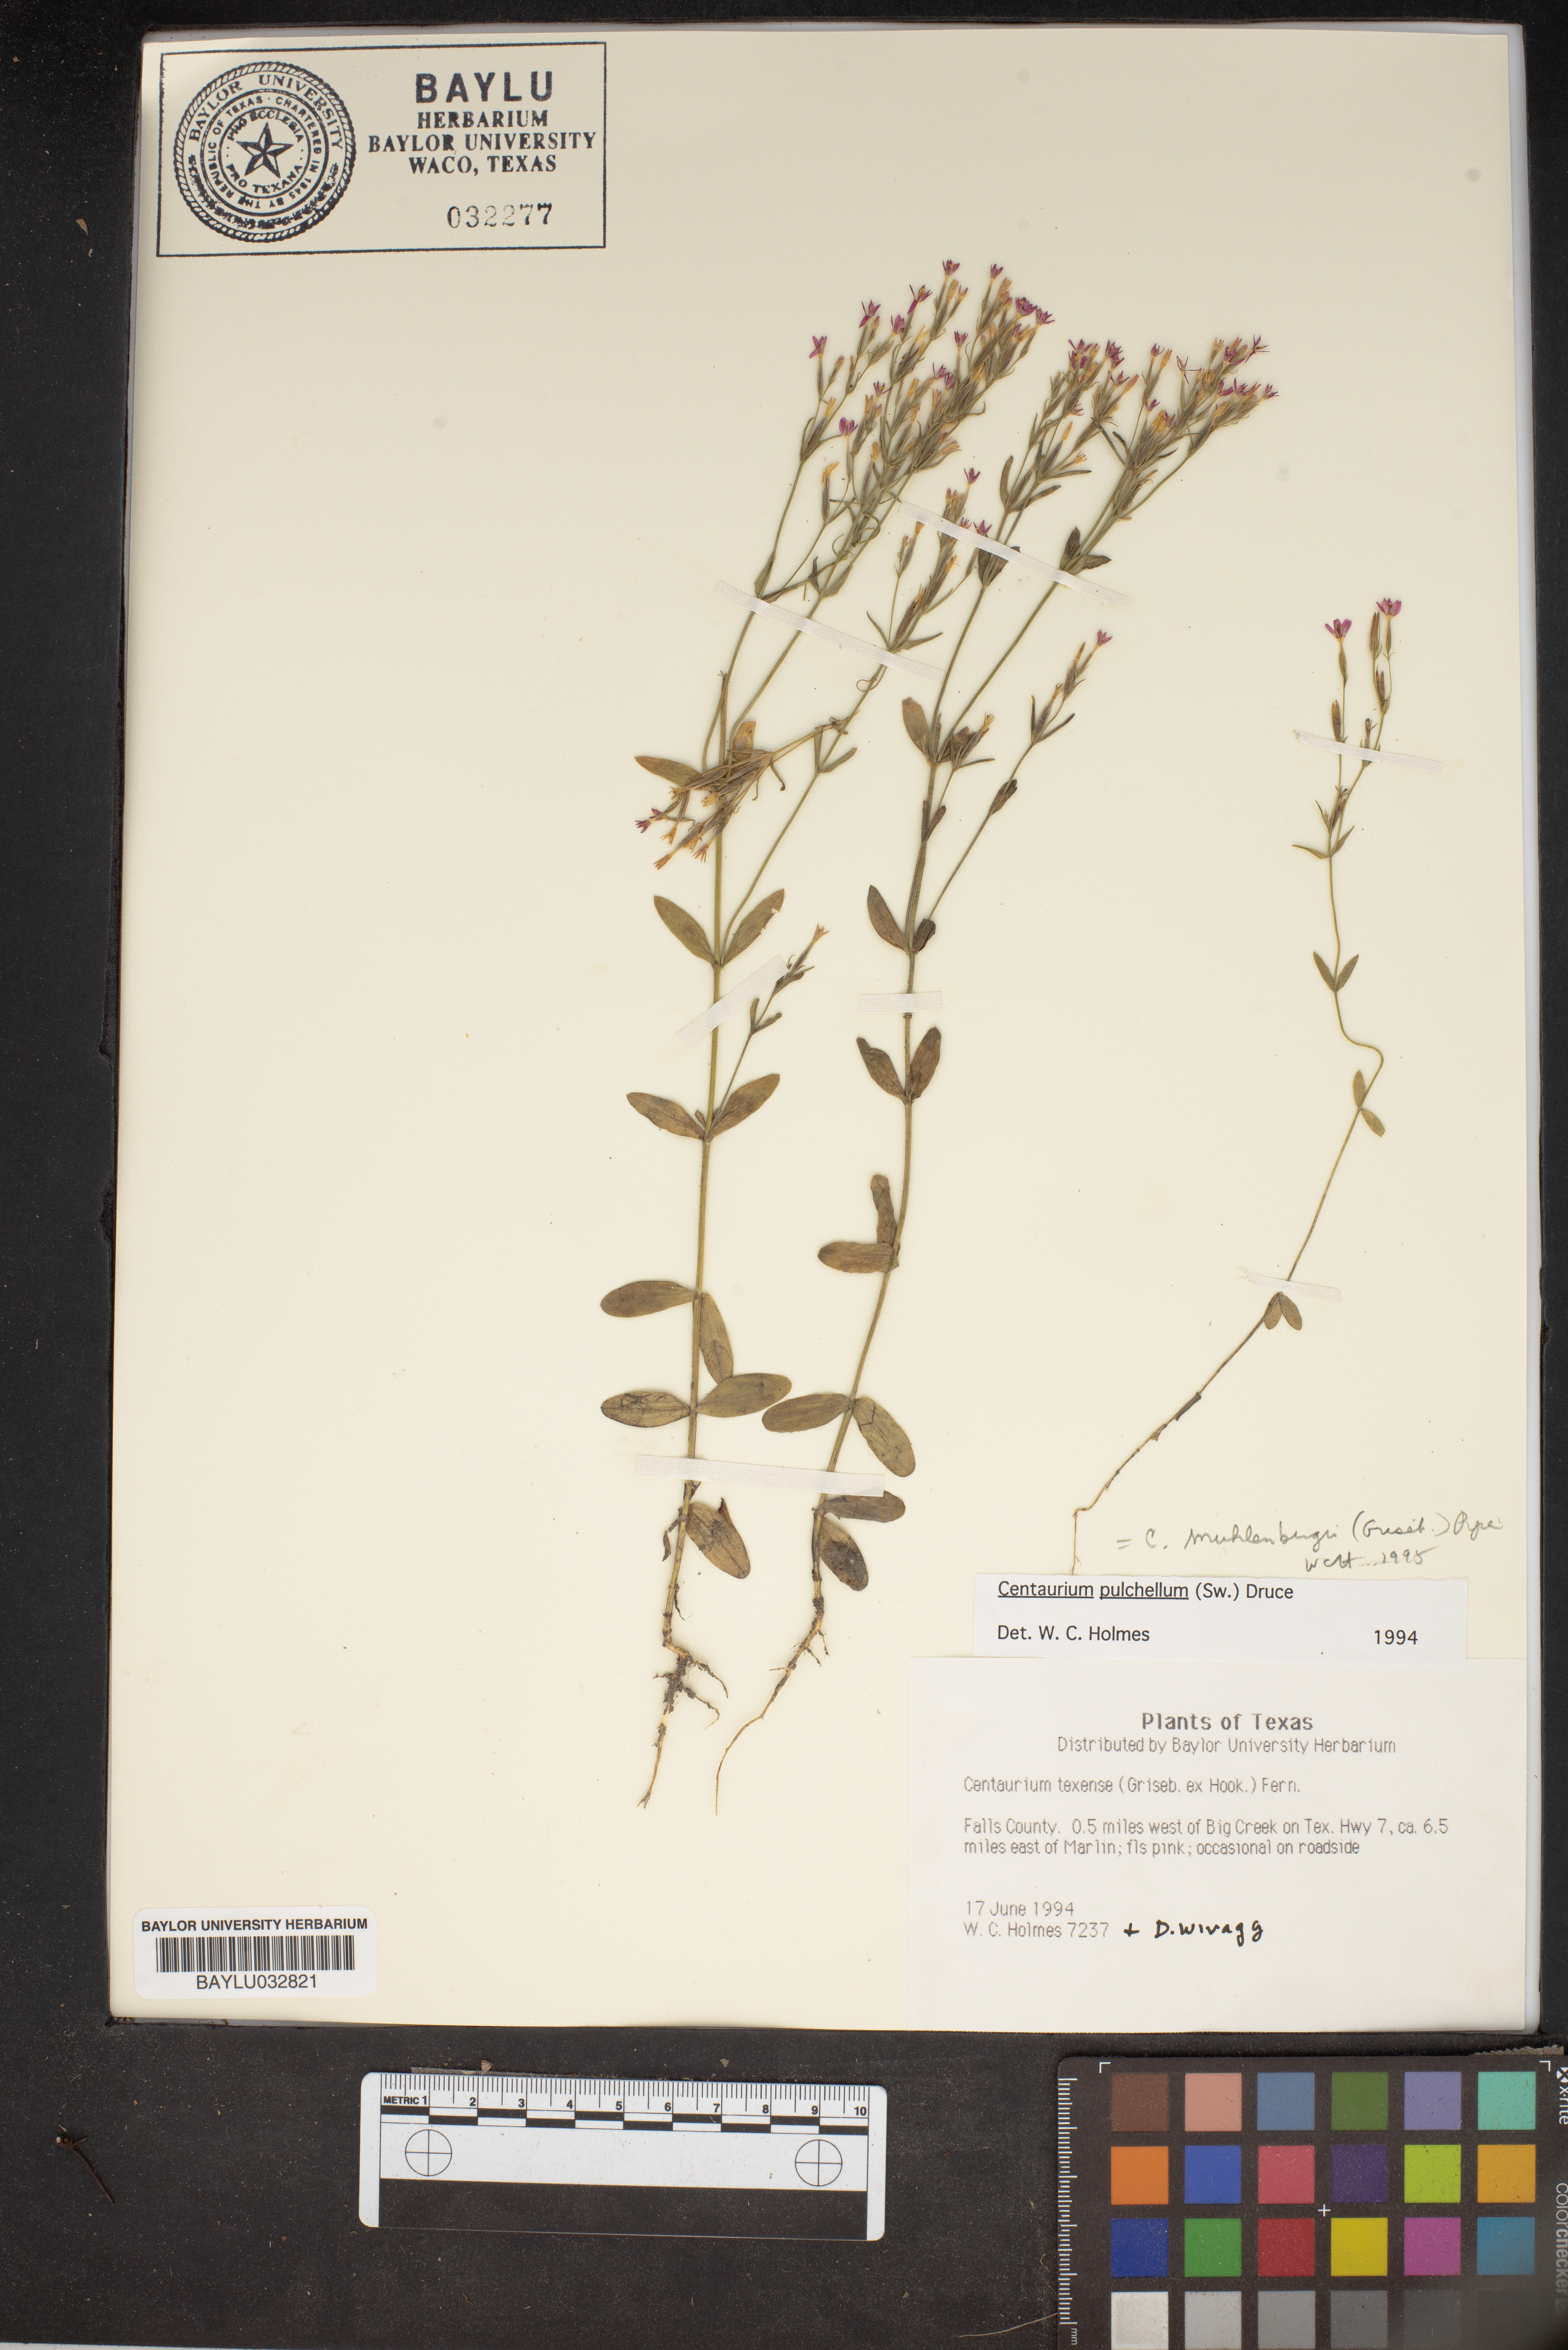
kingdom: Plantae
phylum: Tracheophyta
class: Magnoliopsida
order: Gentianales
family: Gentianaceae
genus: Centaurium
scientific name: Centaurium pulchellum
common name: Lesser centaury
